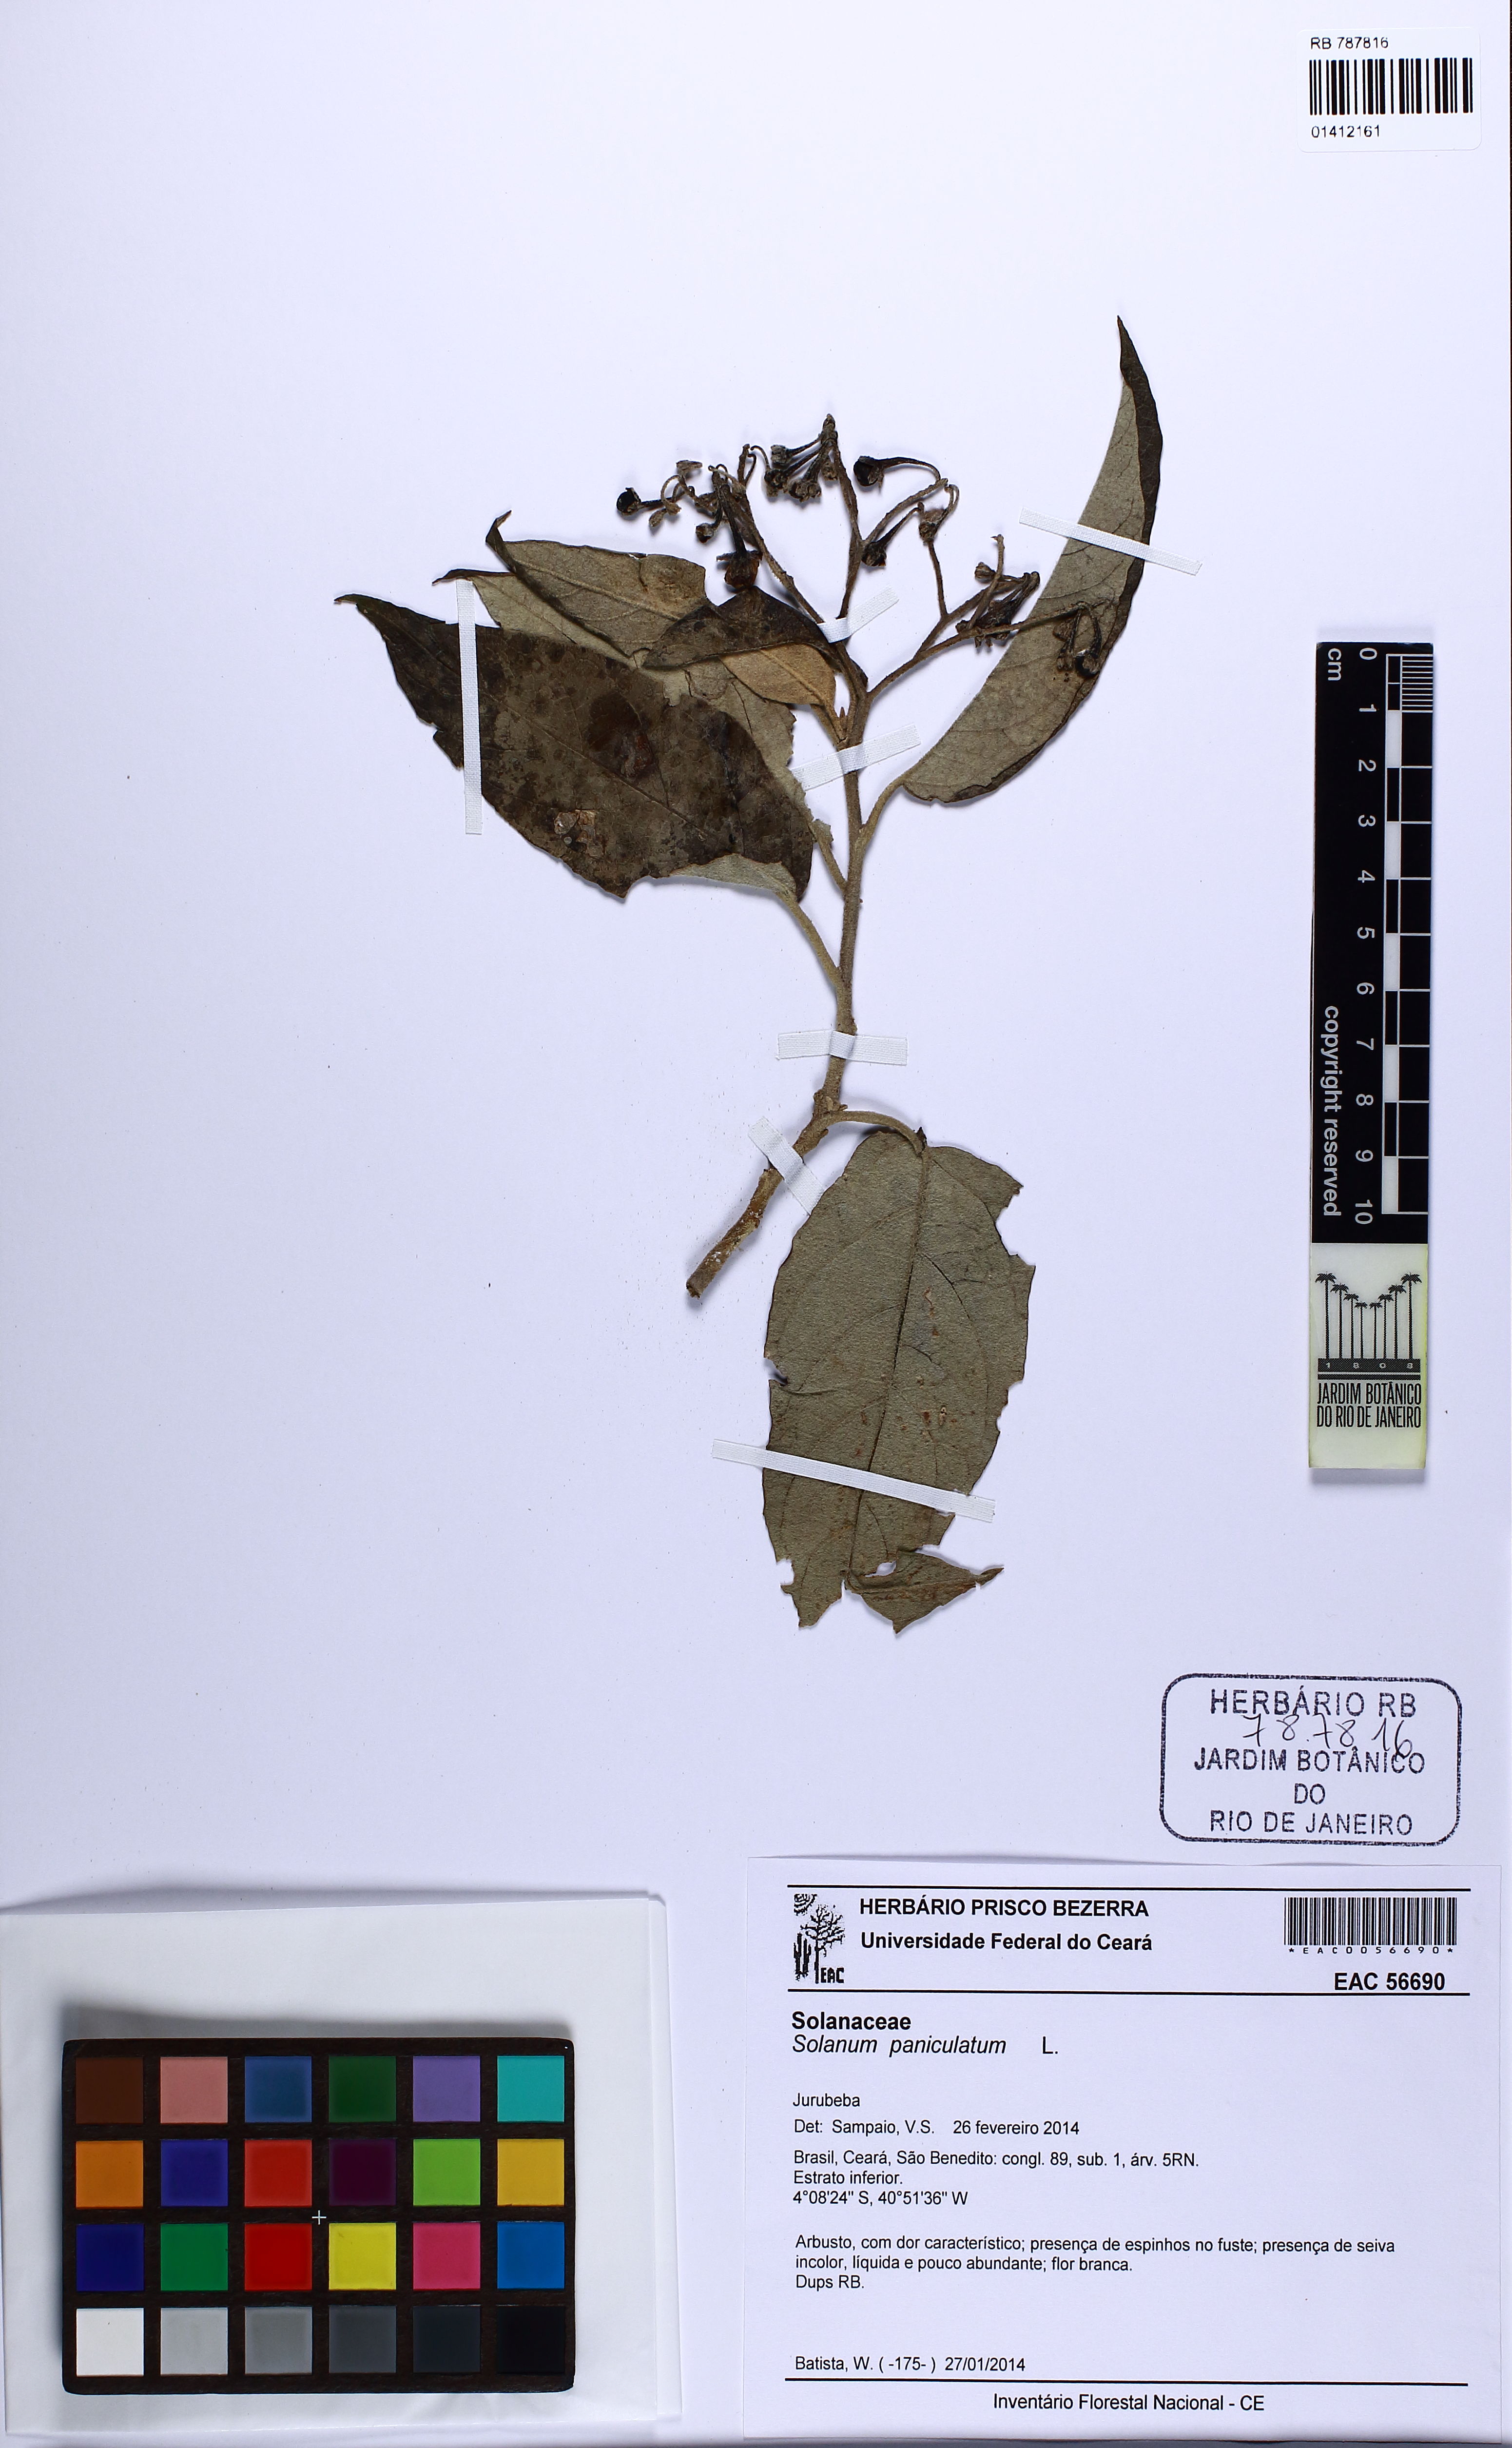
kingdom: Plantae
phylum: Tracheophyta
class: Magnoliopsida
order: Solanales
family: Solanaceae
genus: Solanum
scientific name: Solanum paniculatum
